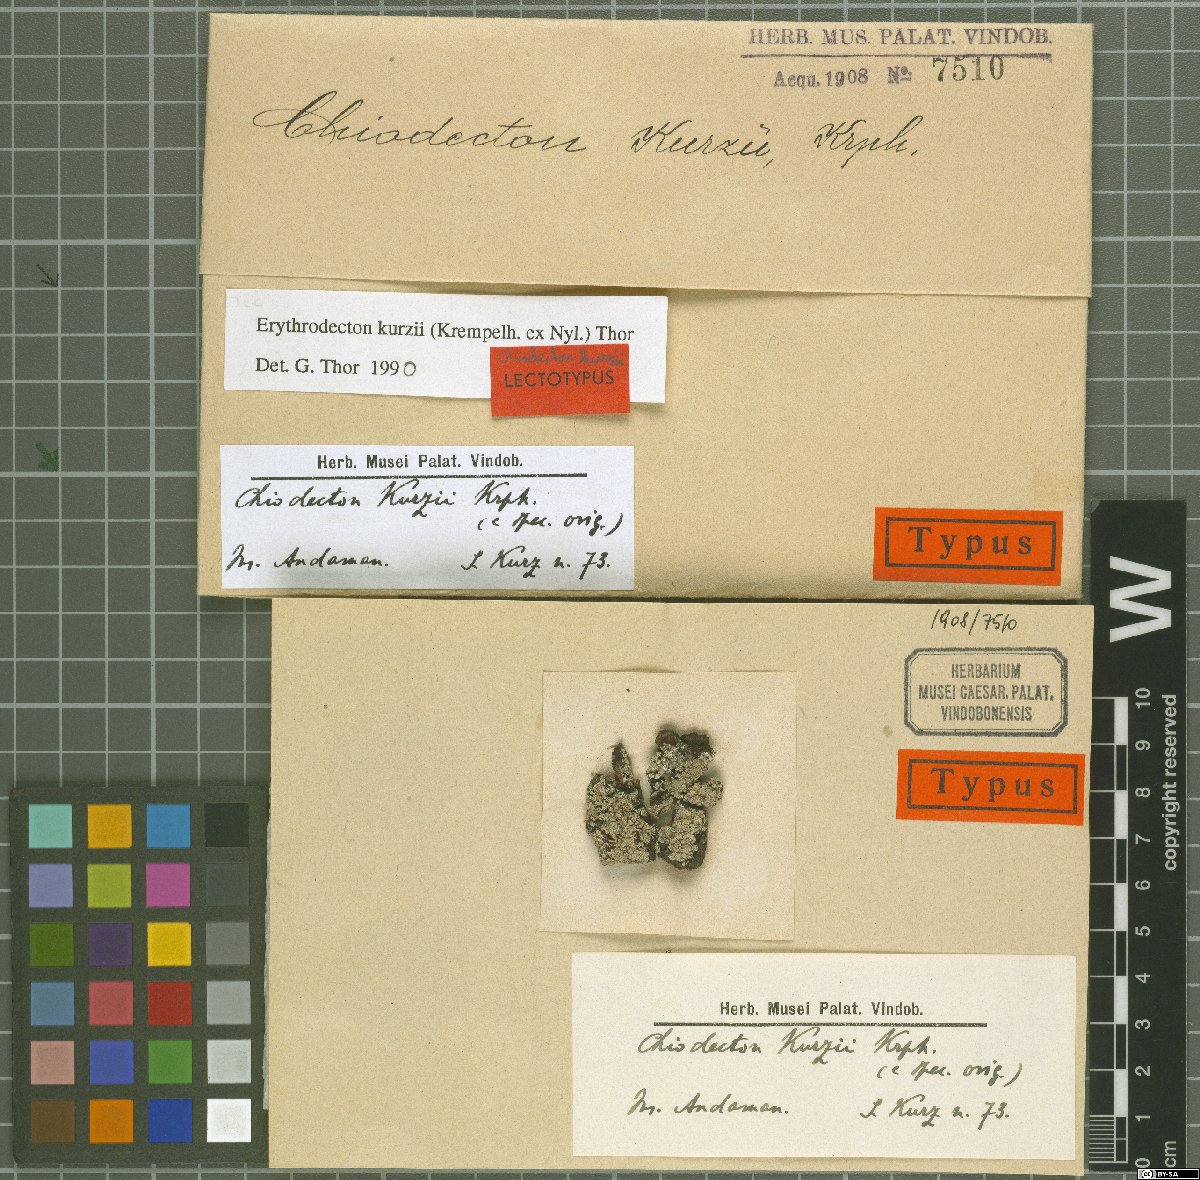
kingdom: Fungi
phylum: Ascomycota
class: Arthoniomycetes
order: Arthoniales
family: Roccellaceae
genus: Pulvinodecton
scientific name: Pulvinodecton kurzii
